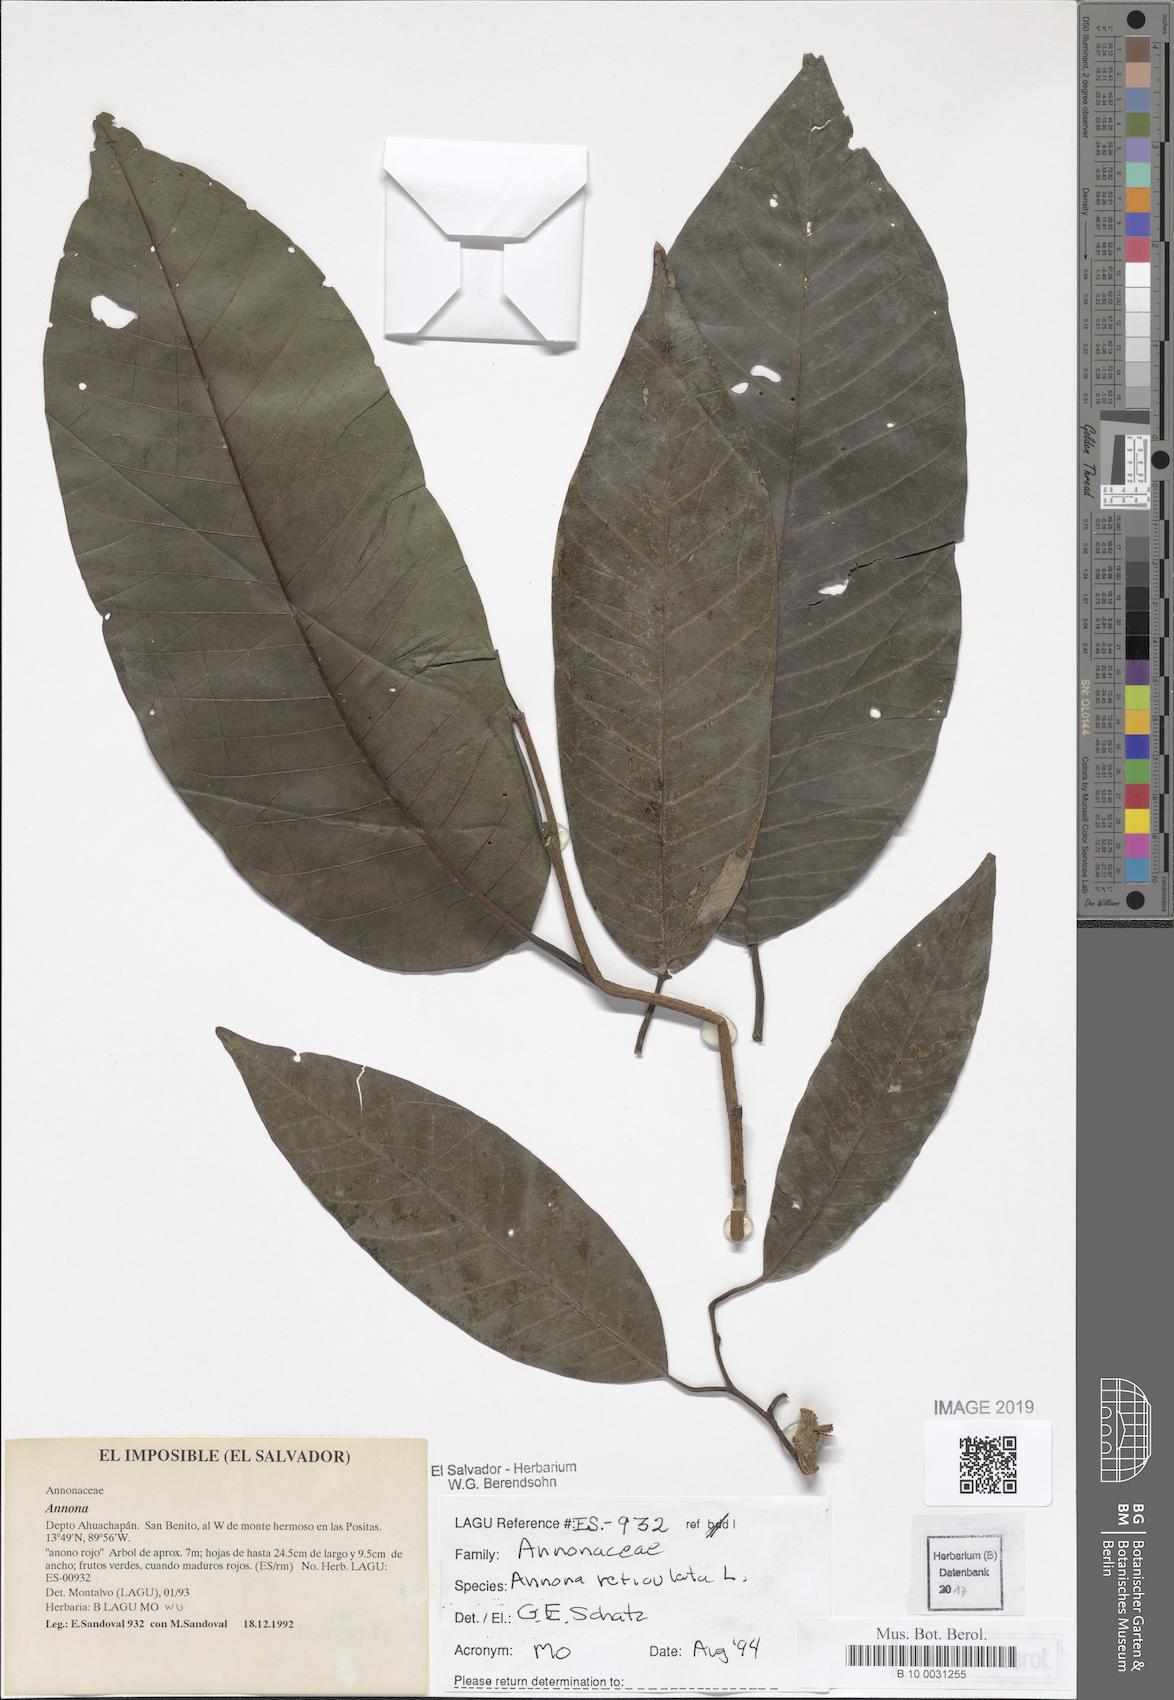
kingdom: Plantae
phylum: Tracheophyta
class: Magnoliopsida
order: Magnoliales
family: Annonaceae
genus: Annona
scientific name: Annona reticulata
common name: Custard apple
